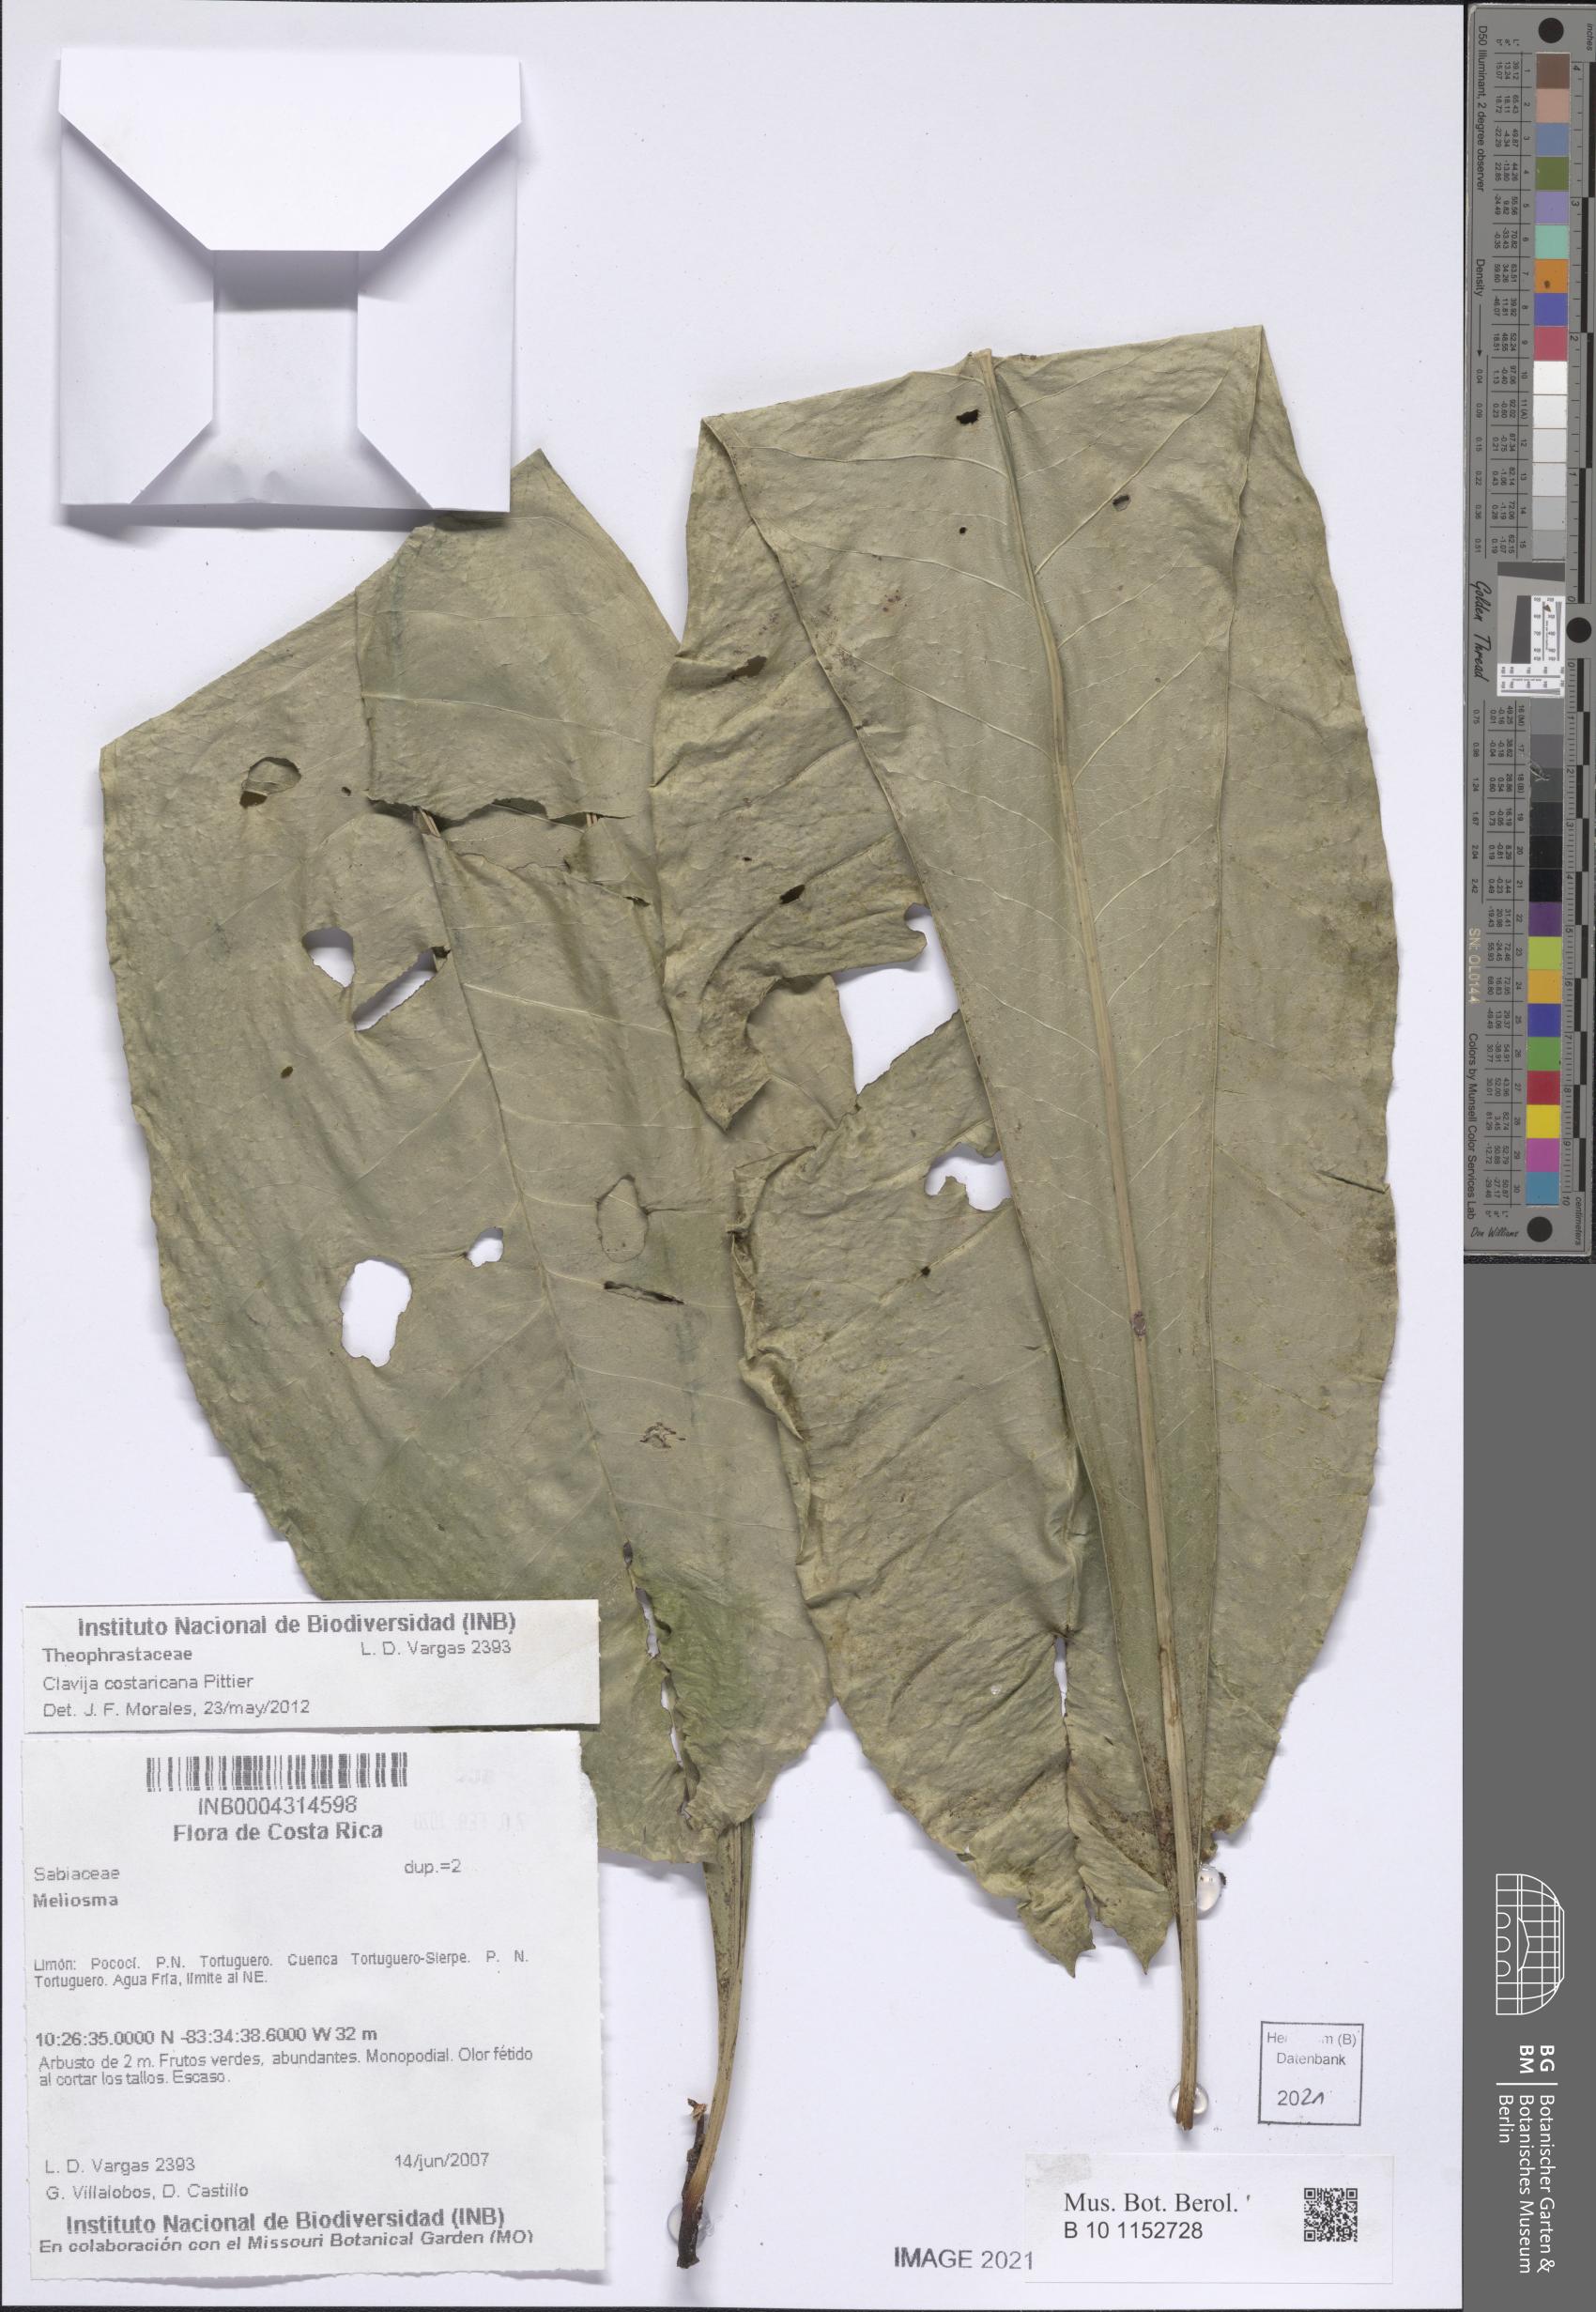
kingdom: Plantae
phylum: Tracheophyta
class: Magnoliopsida
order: Ericales
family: Primulaceae
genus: Clavija
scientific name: Clavija costaricana
